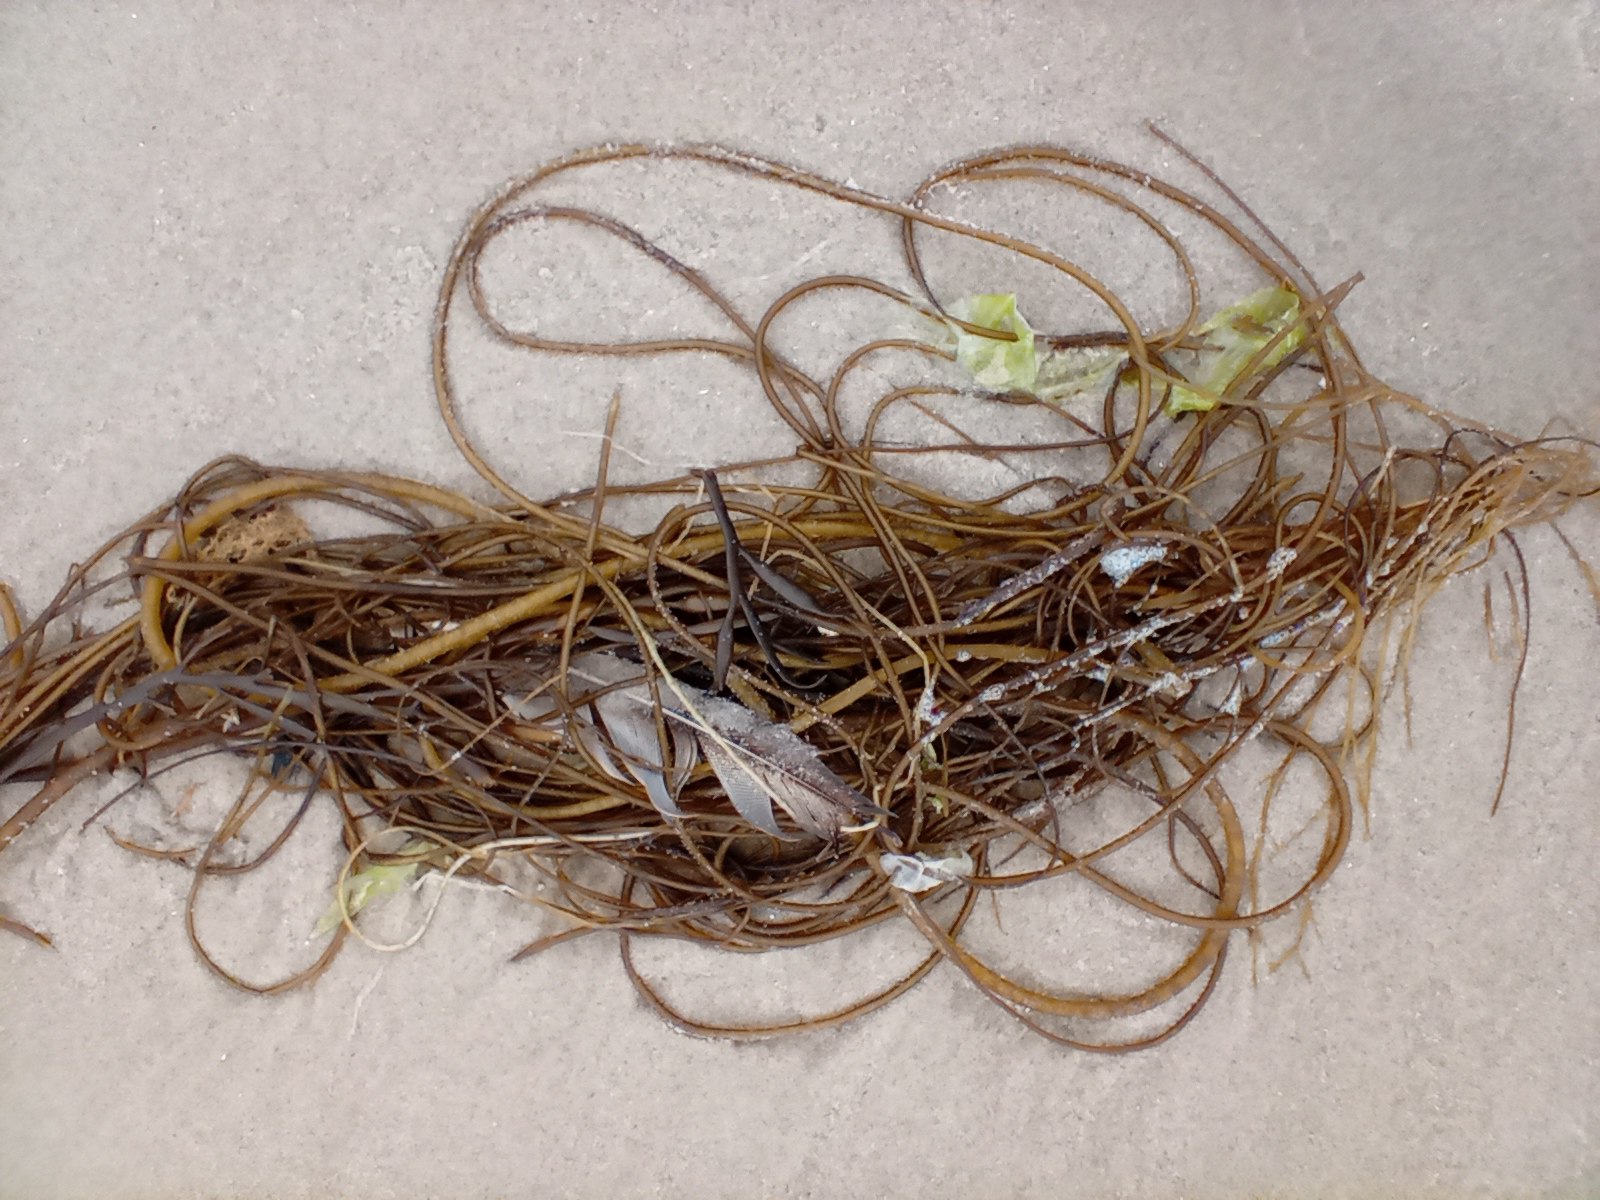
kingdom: Chromista
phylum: Ochrophyta
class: Phaeophyceae
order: Laminariales
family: Chordaceae
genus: Chorda
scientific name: Chorda filum
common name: Strengetang
